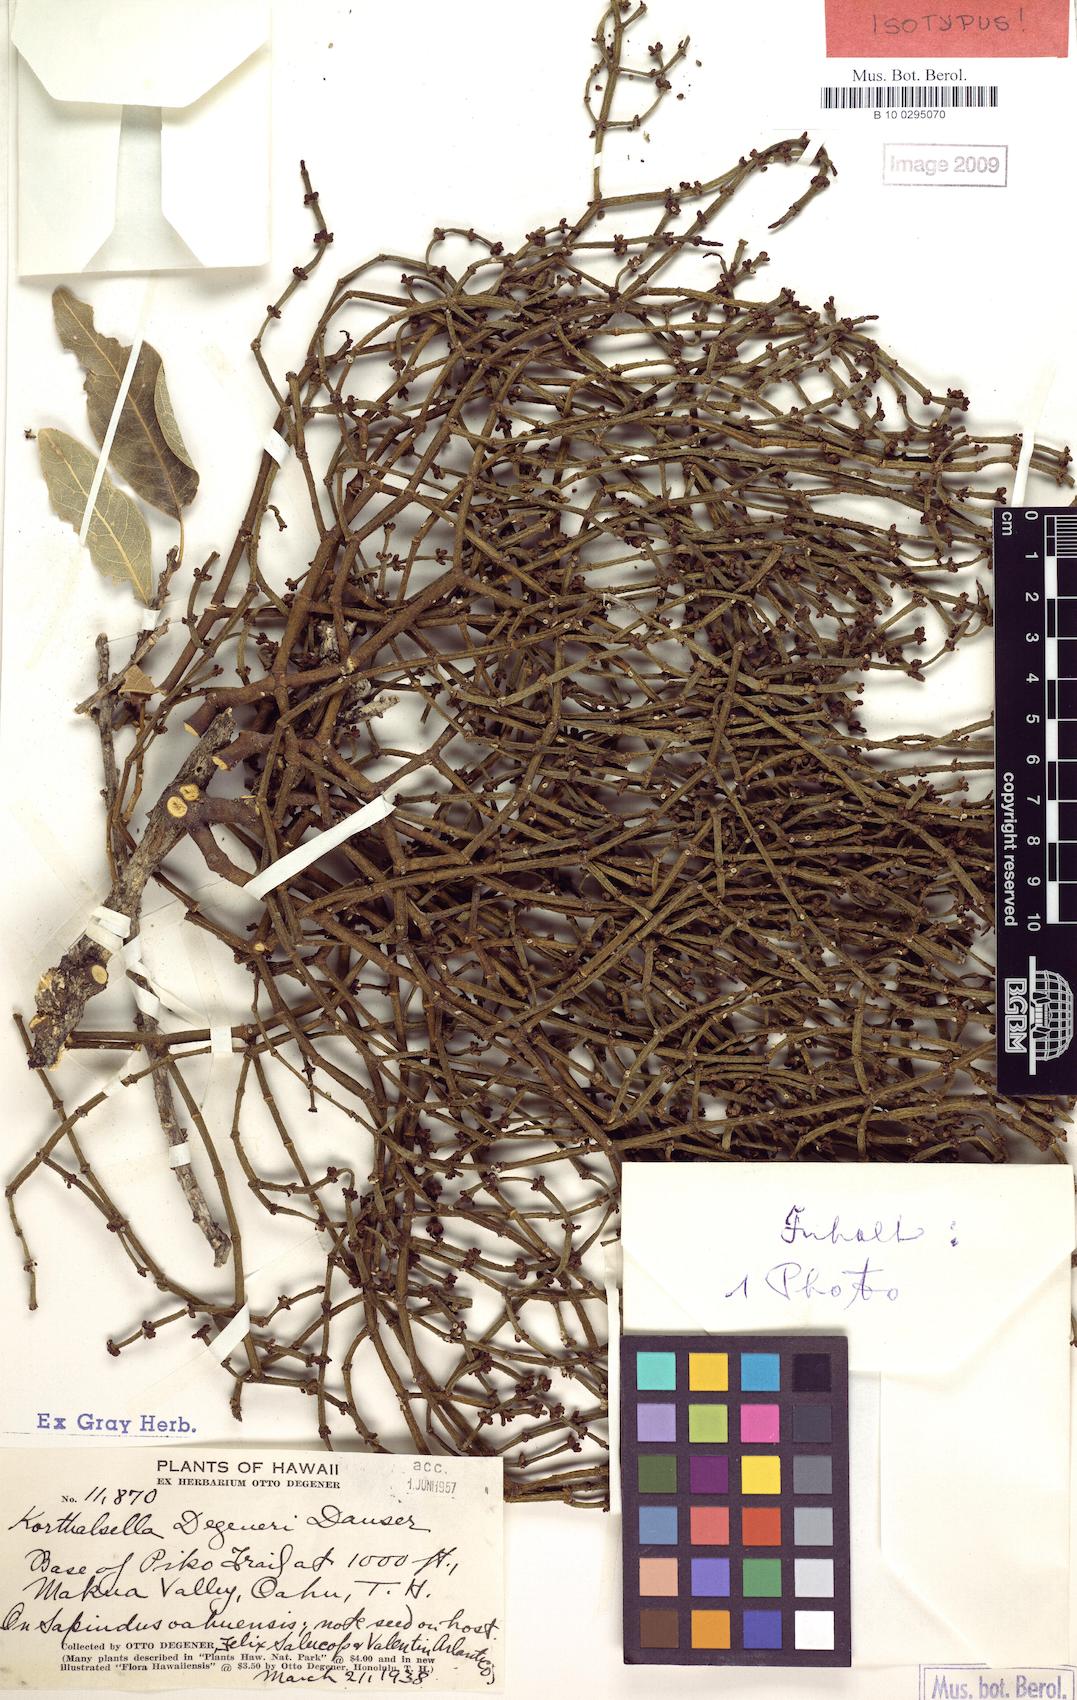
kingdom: Plantae
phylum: Tracheophyta
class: Magnoliopsida
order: Santalales
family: Viscaceae
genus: Korthalsella
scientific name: Korthalsella degeneri
